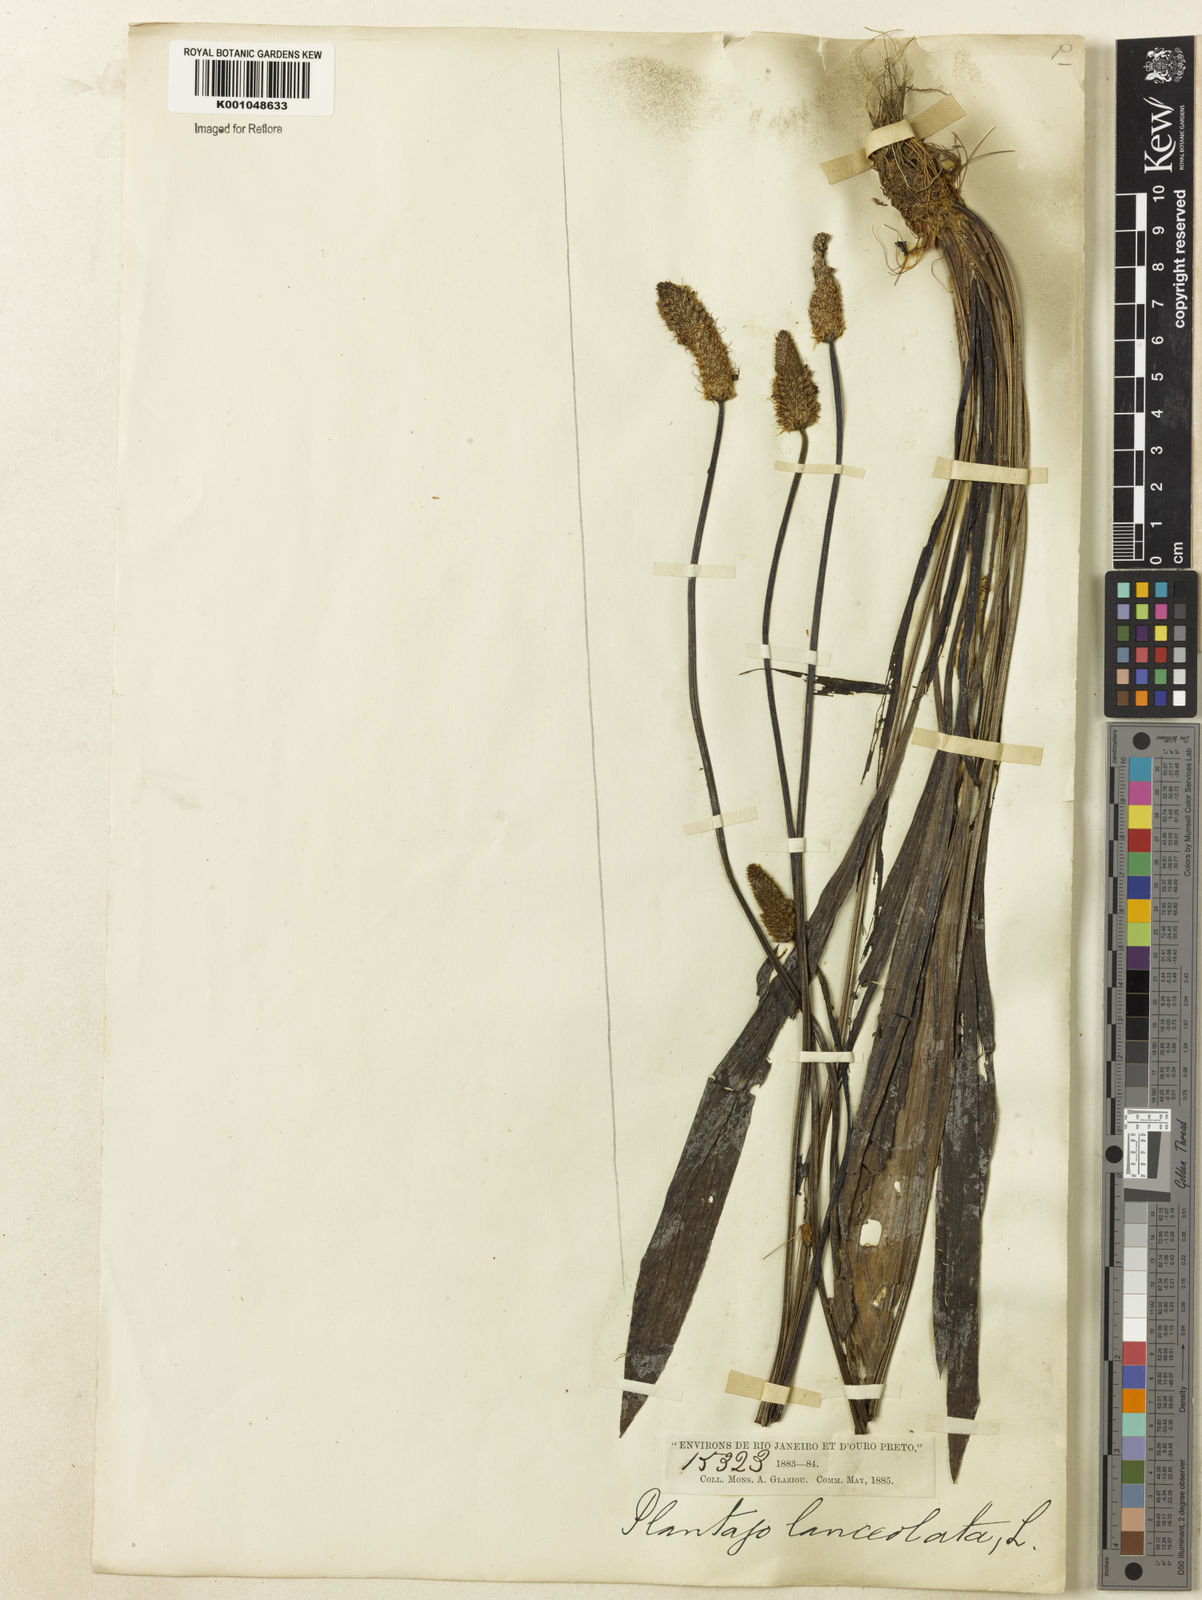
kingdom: Plantae
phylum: Tracheophyta
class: Magnoliopsida
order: Lamiales
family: Plantaginaceae
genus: Plantago
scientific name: Plantago lanceolata
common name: Ribwort plantain
